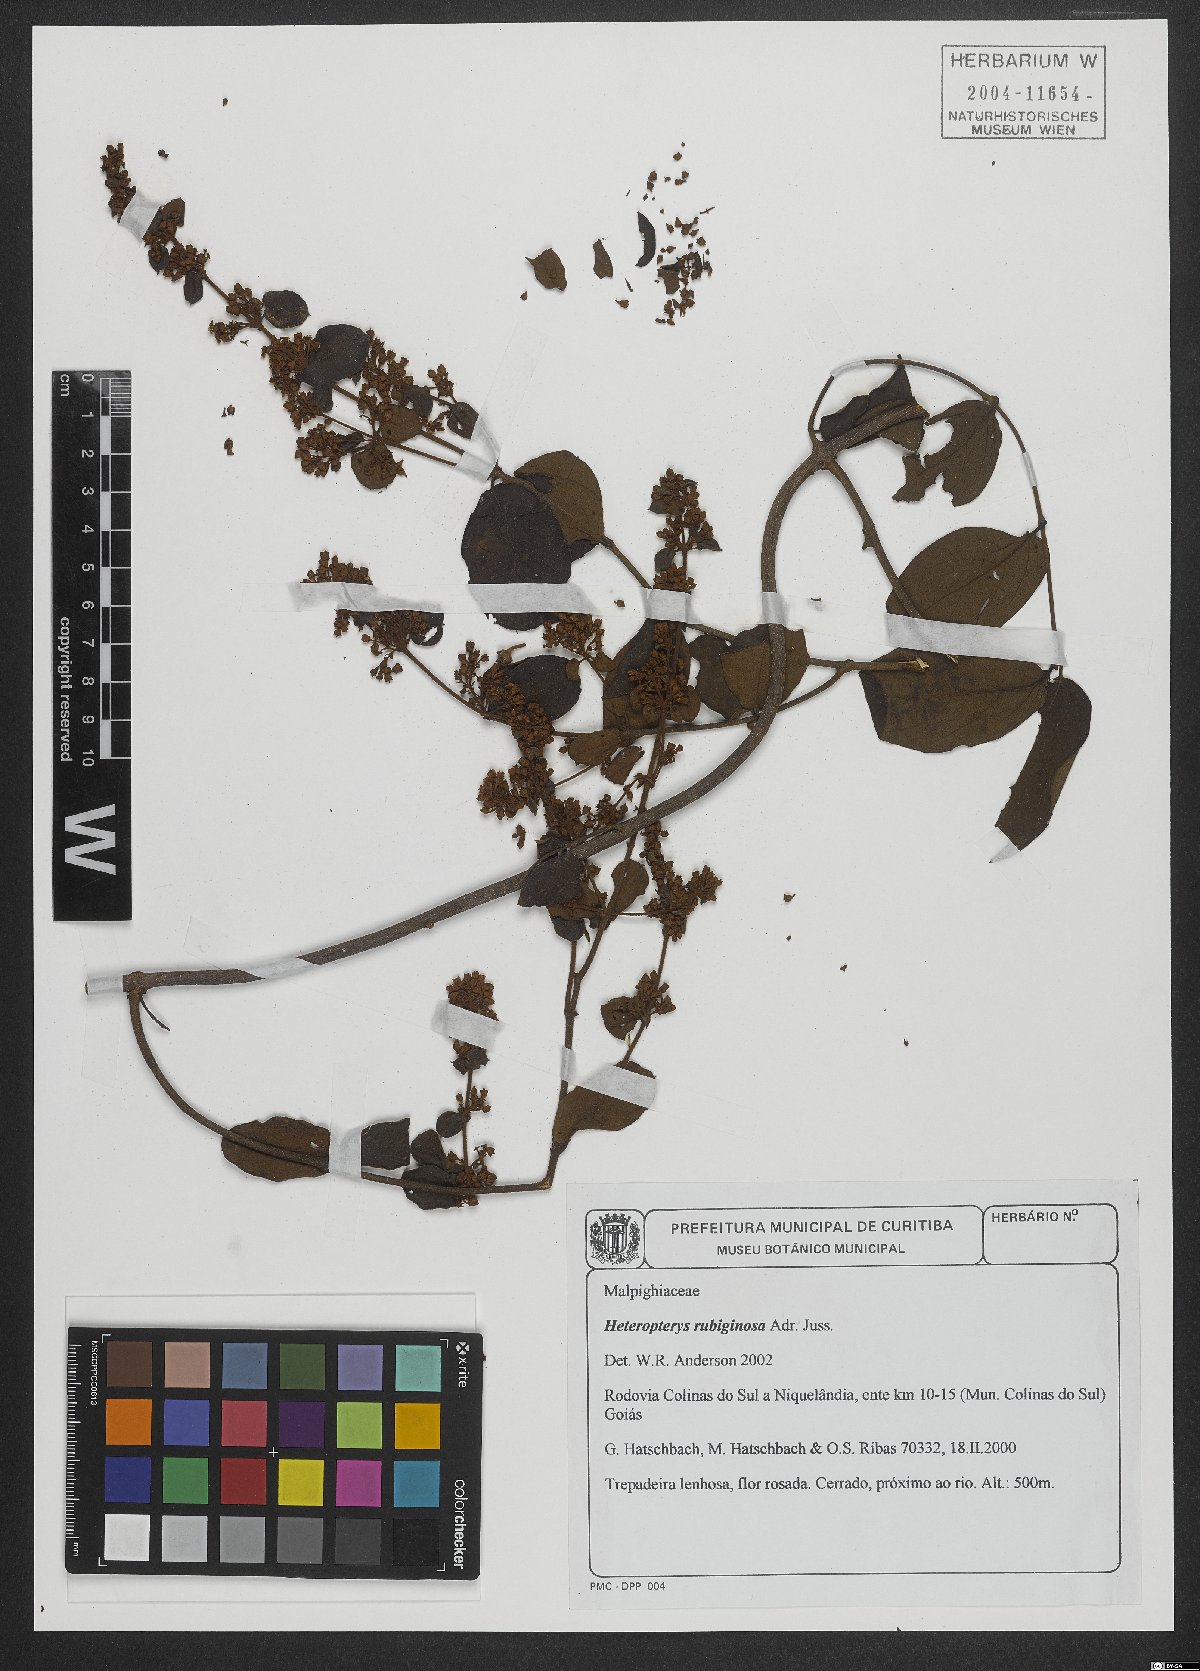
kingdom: Plantae
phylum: Tracheophyta
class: Magnoliopsida
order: Malpighiales
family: Malpighiaceae
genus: Heteropterys
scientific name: Heteropterys rubiginosa
